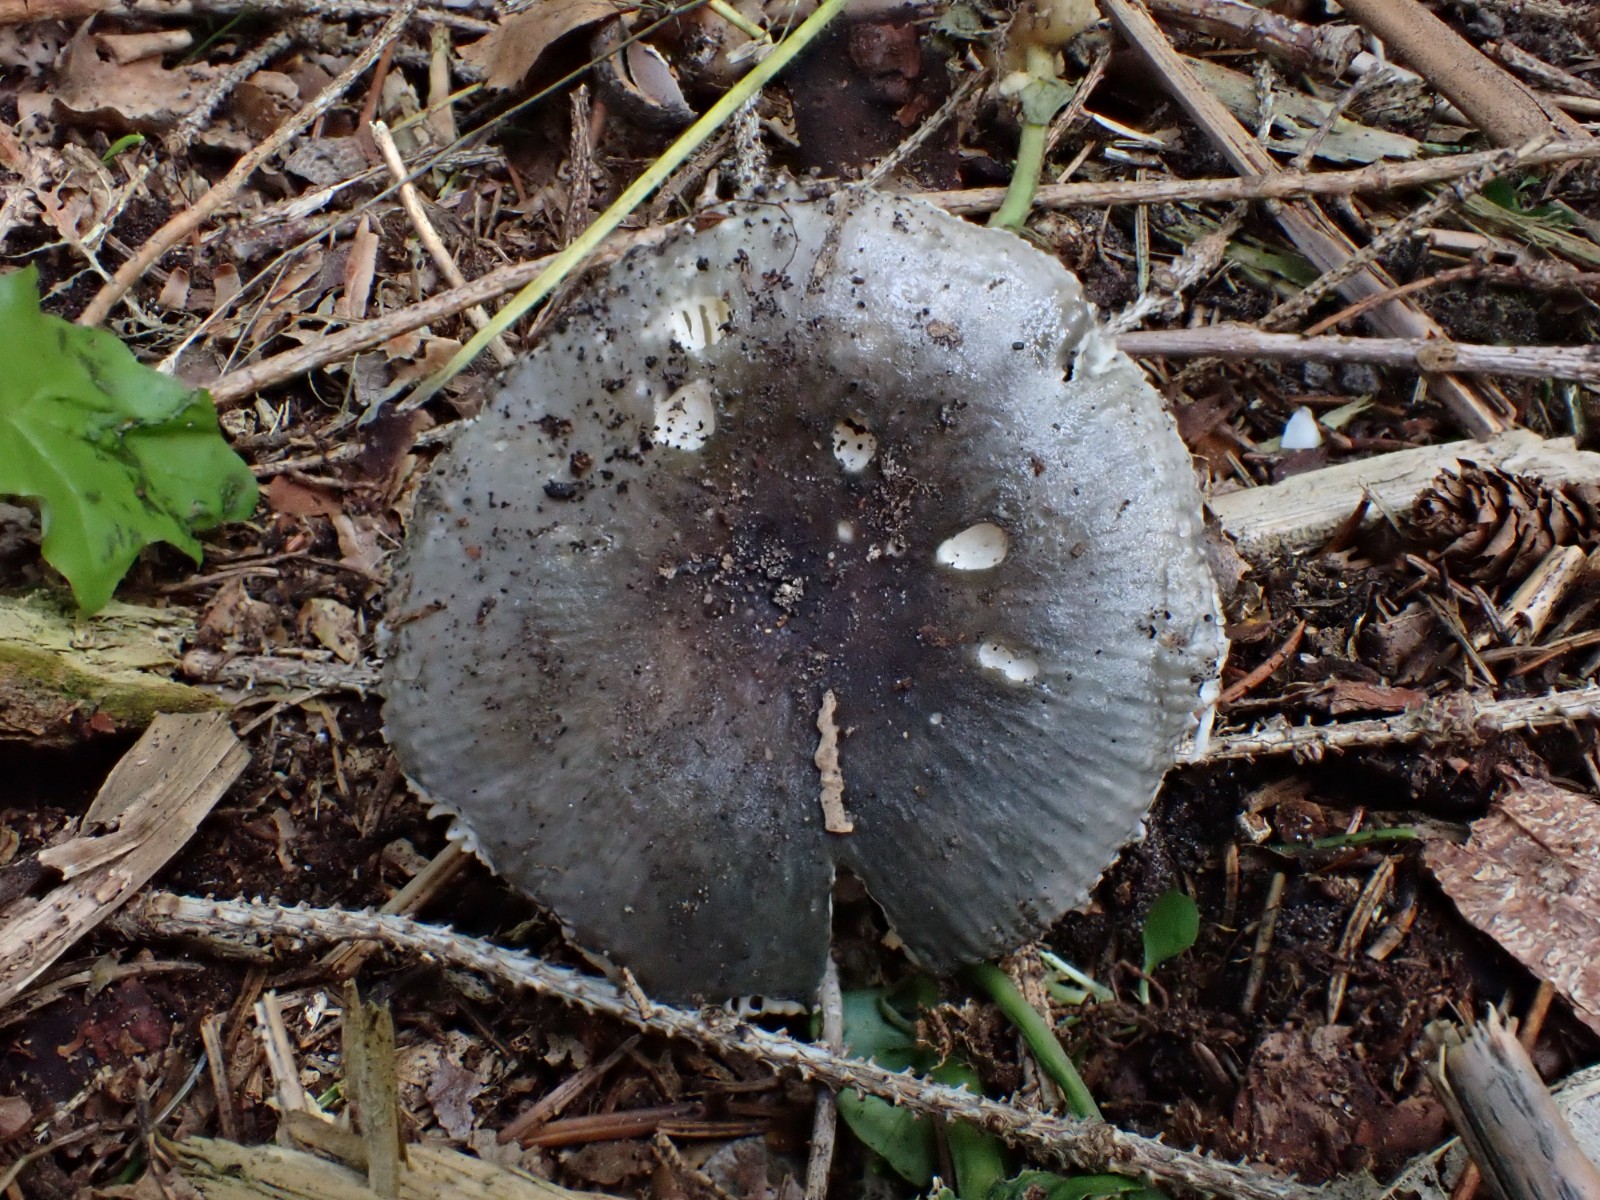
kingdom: Fungi
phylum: Basidiomycota
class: Agaricomycetes
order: Russulales
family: Russulaceae
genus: Russula
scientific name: Russula parazurea
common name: blågrå skørhat
